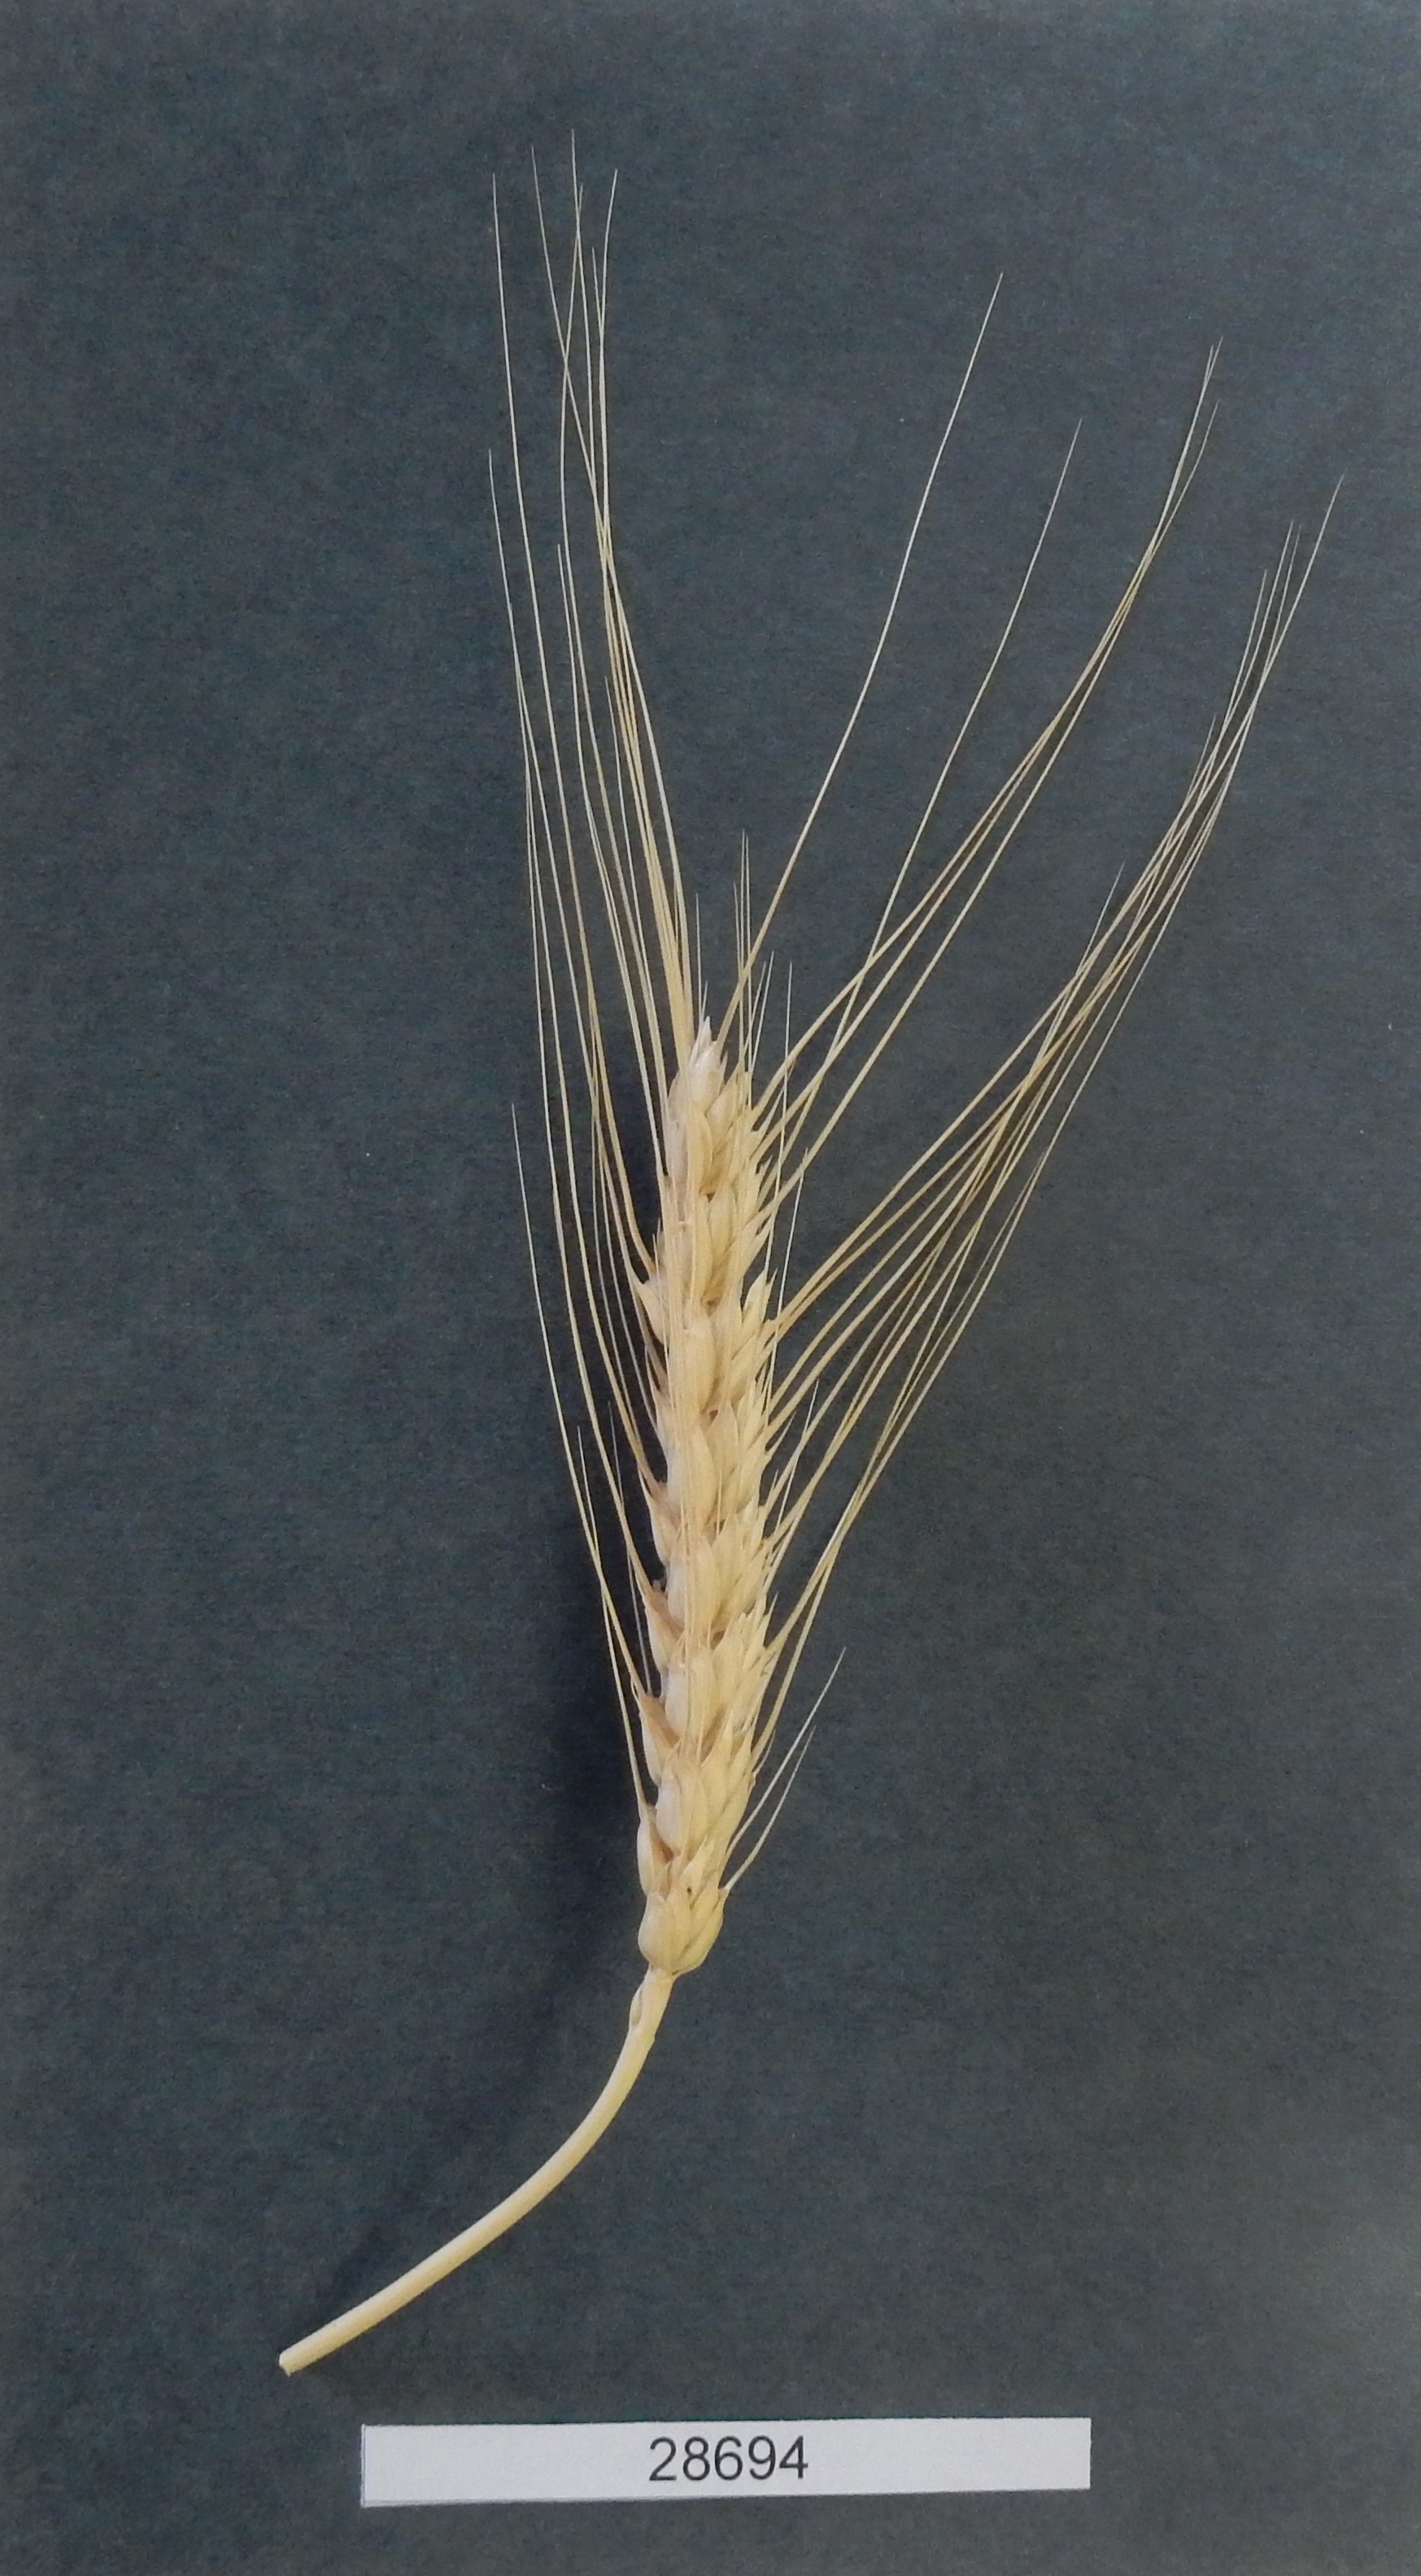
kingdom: Plantae
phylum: Tracheophyta
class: Liliopsida
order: Poales
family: Poaceae
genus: Triticum
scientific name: Triticum aestivum
